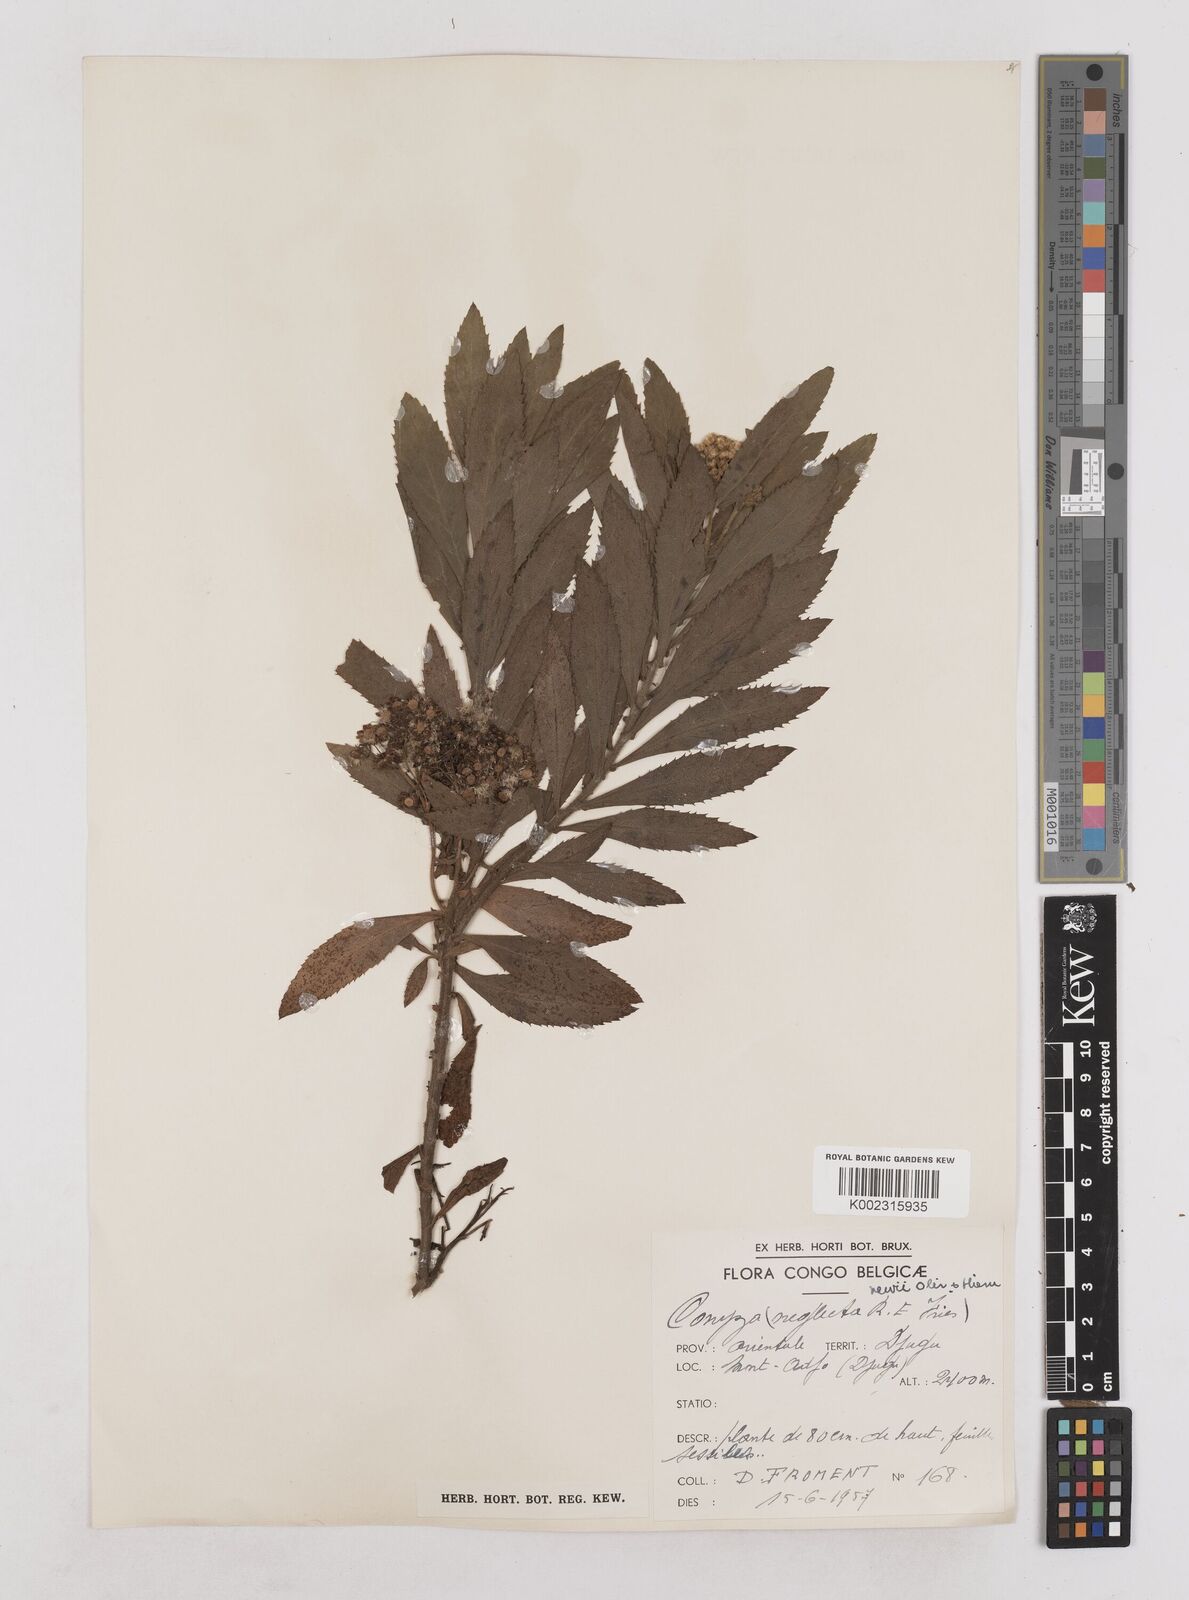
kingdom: Plantae
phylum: Tracheophyta
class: Magnoliopsida
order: Asterales
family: Asteraceae
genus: Conyza
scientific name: Conyza newii
